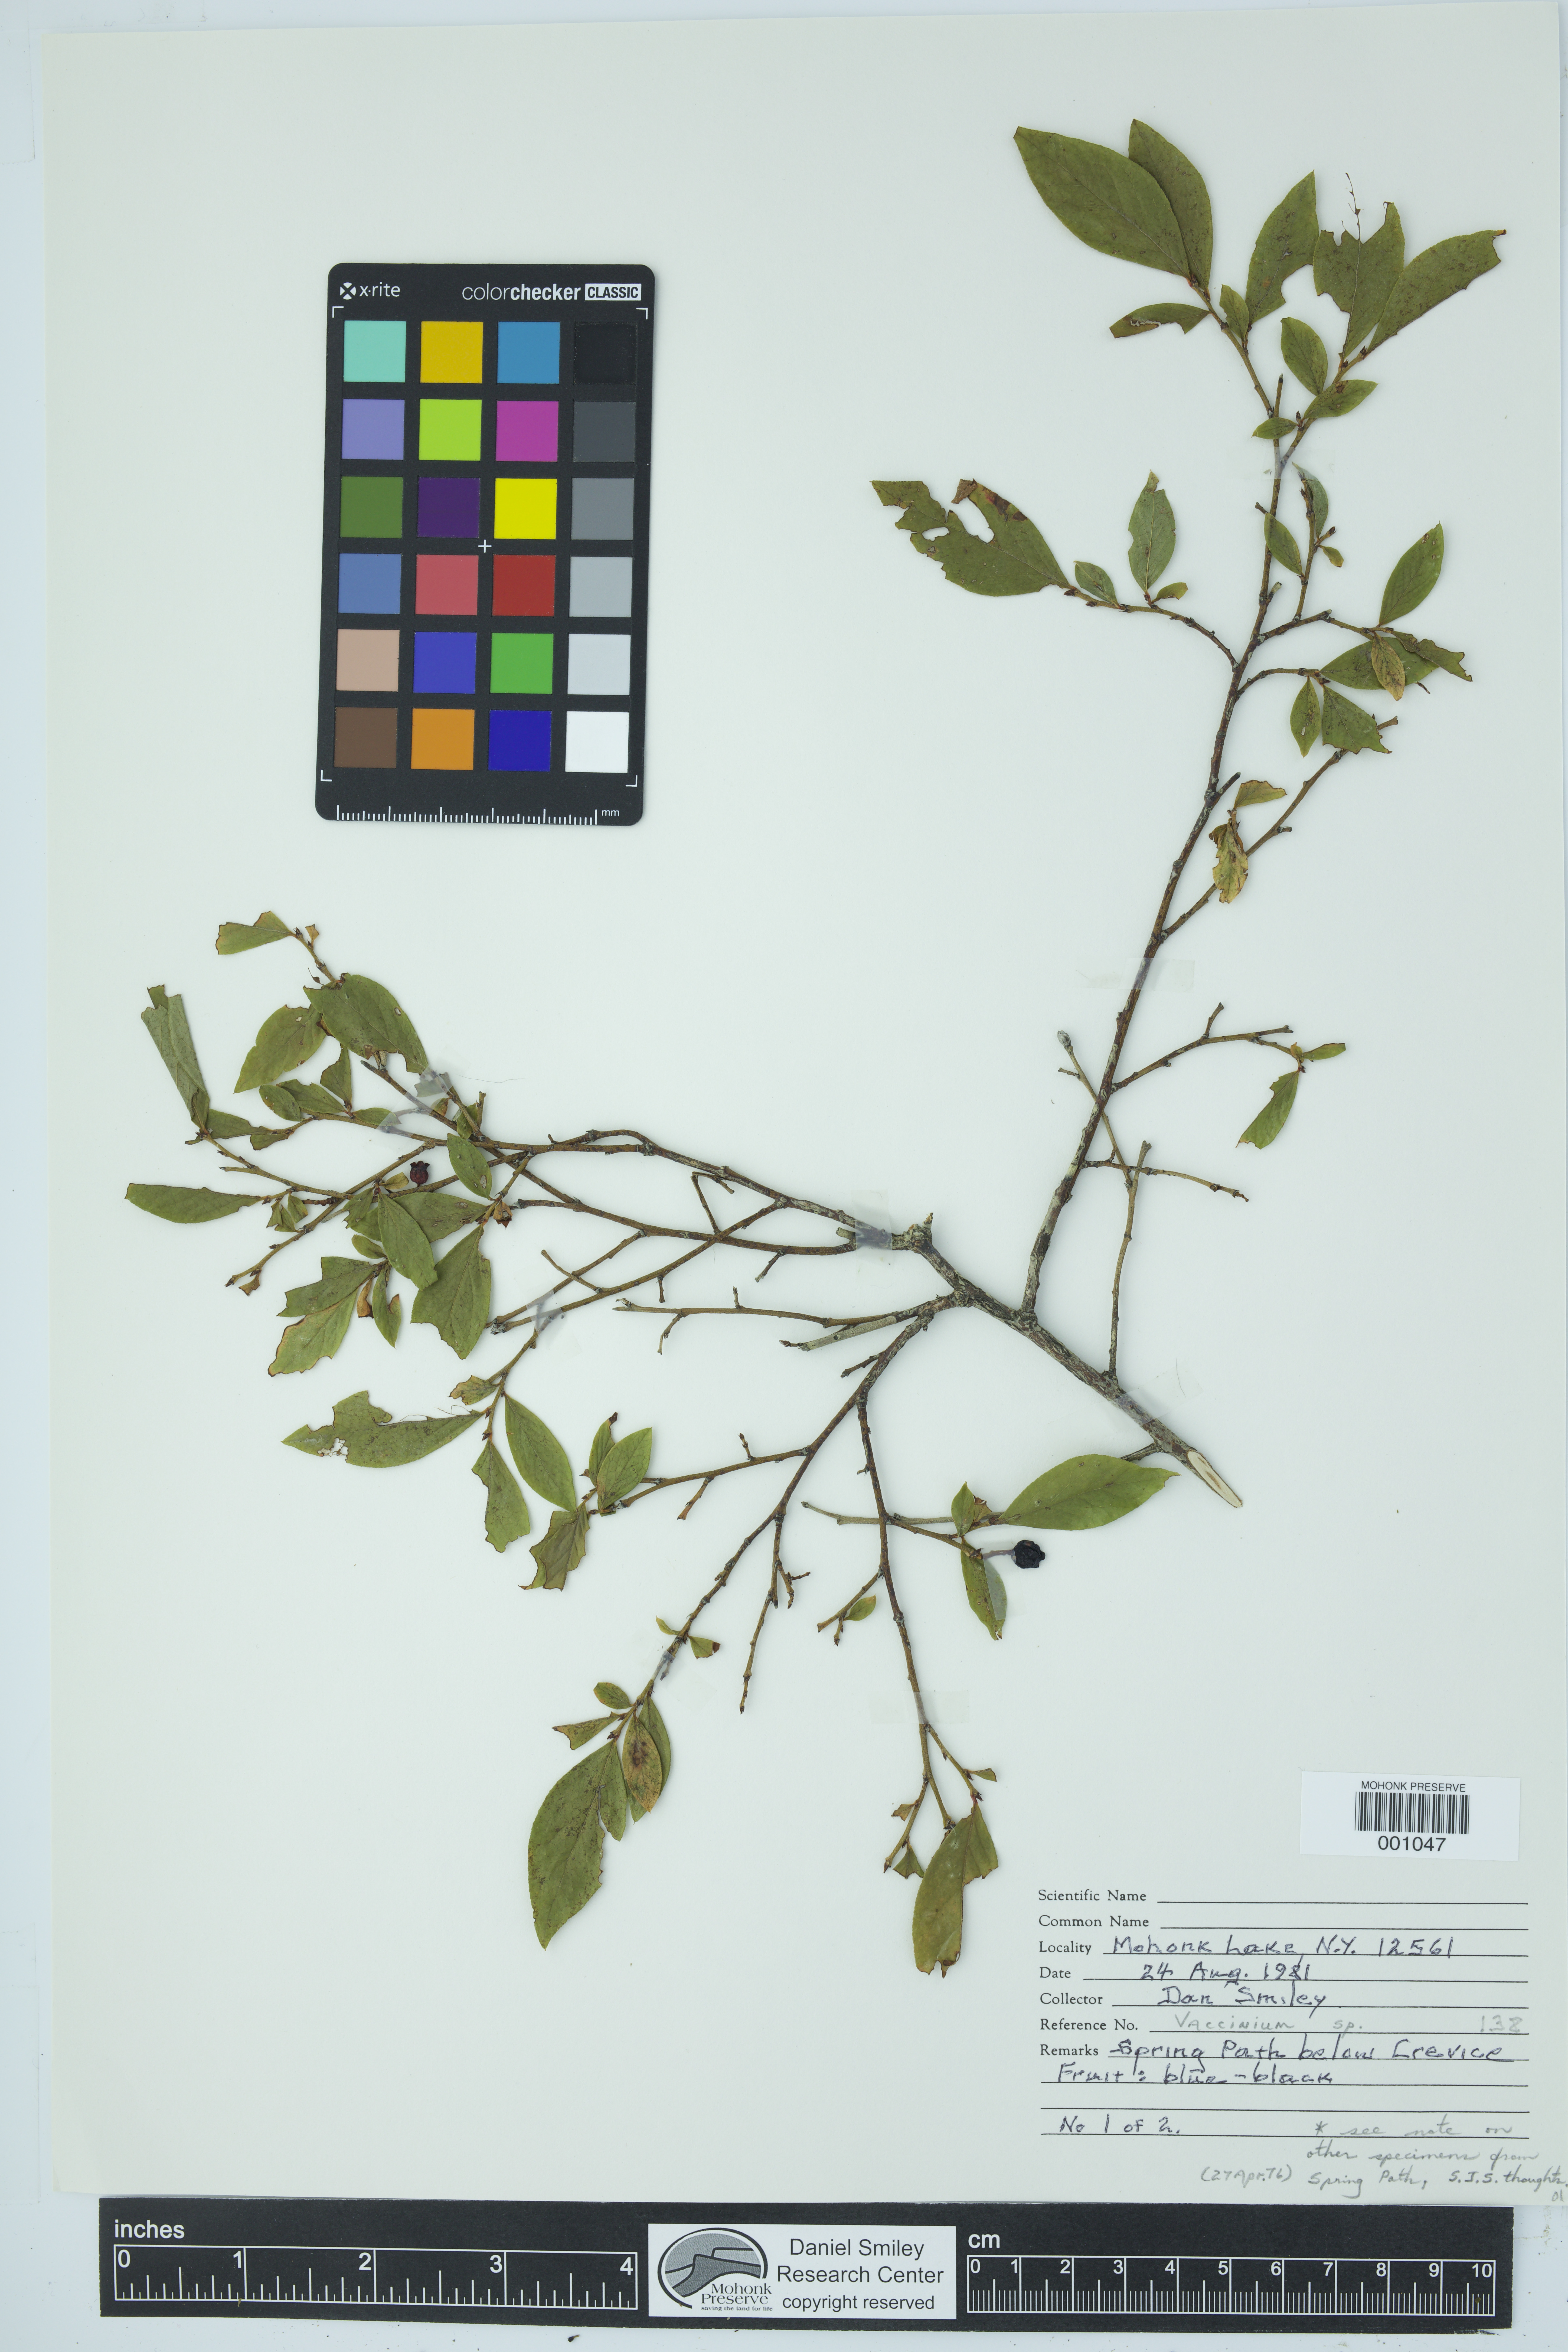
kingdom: Plantae
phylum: Tracheophyta
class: Magnoliopsida
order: Ericales
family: Ericaceae
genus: Vaccinium
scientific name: Vaccinium
